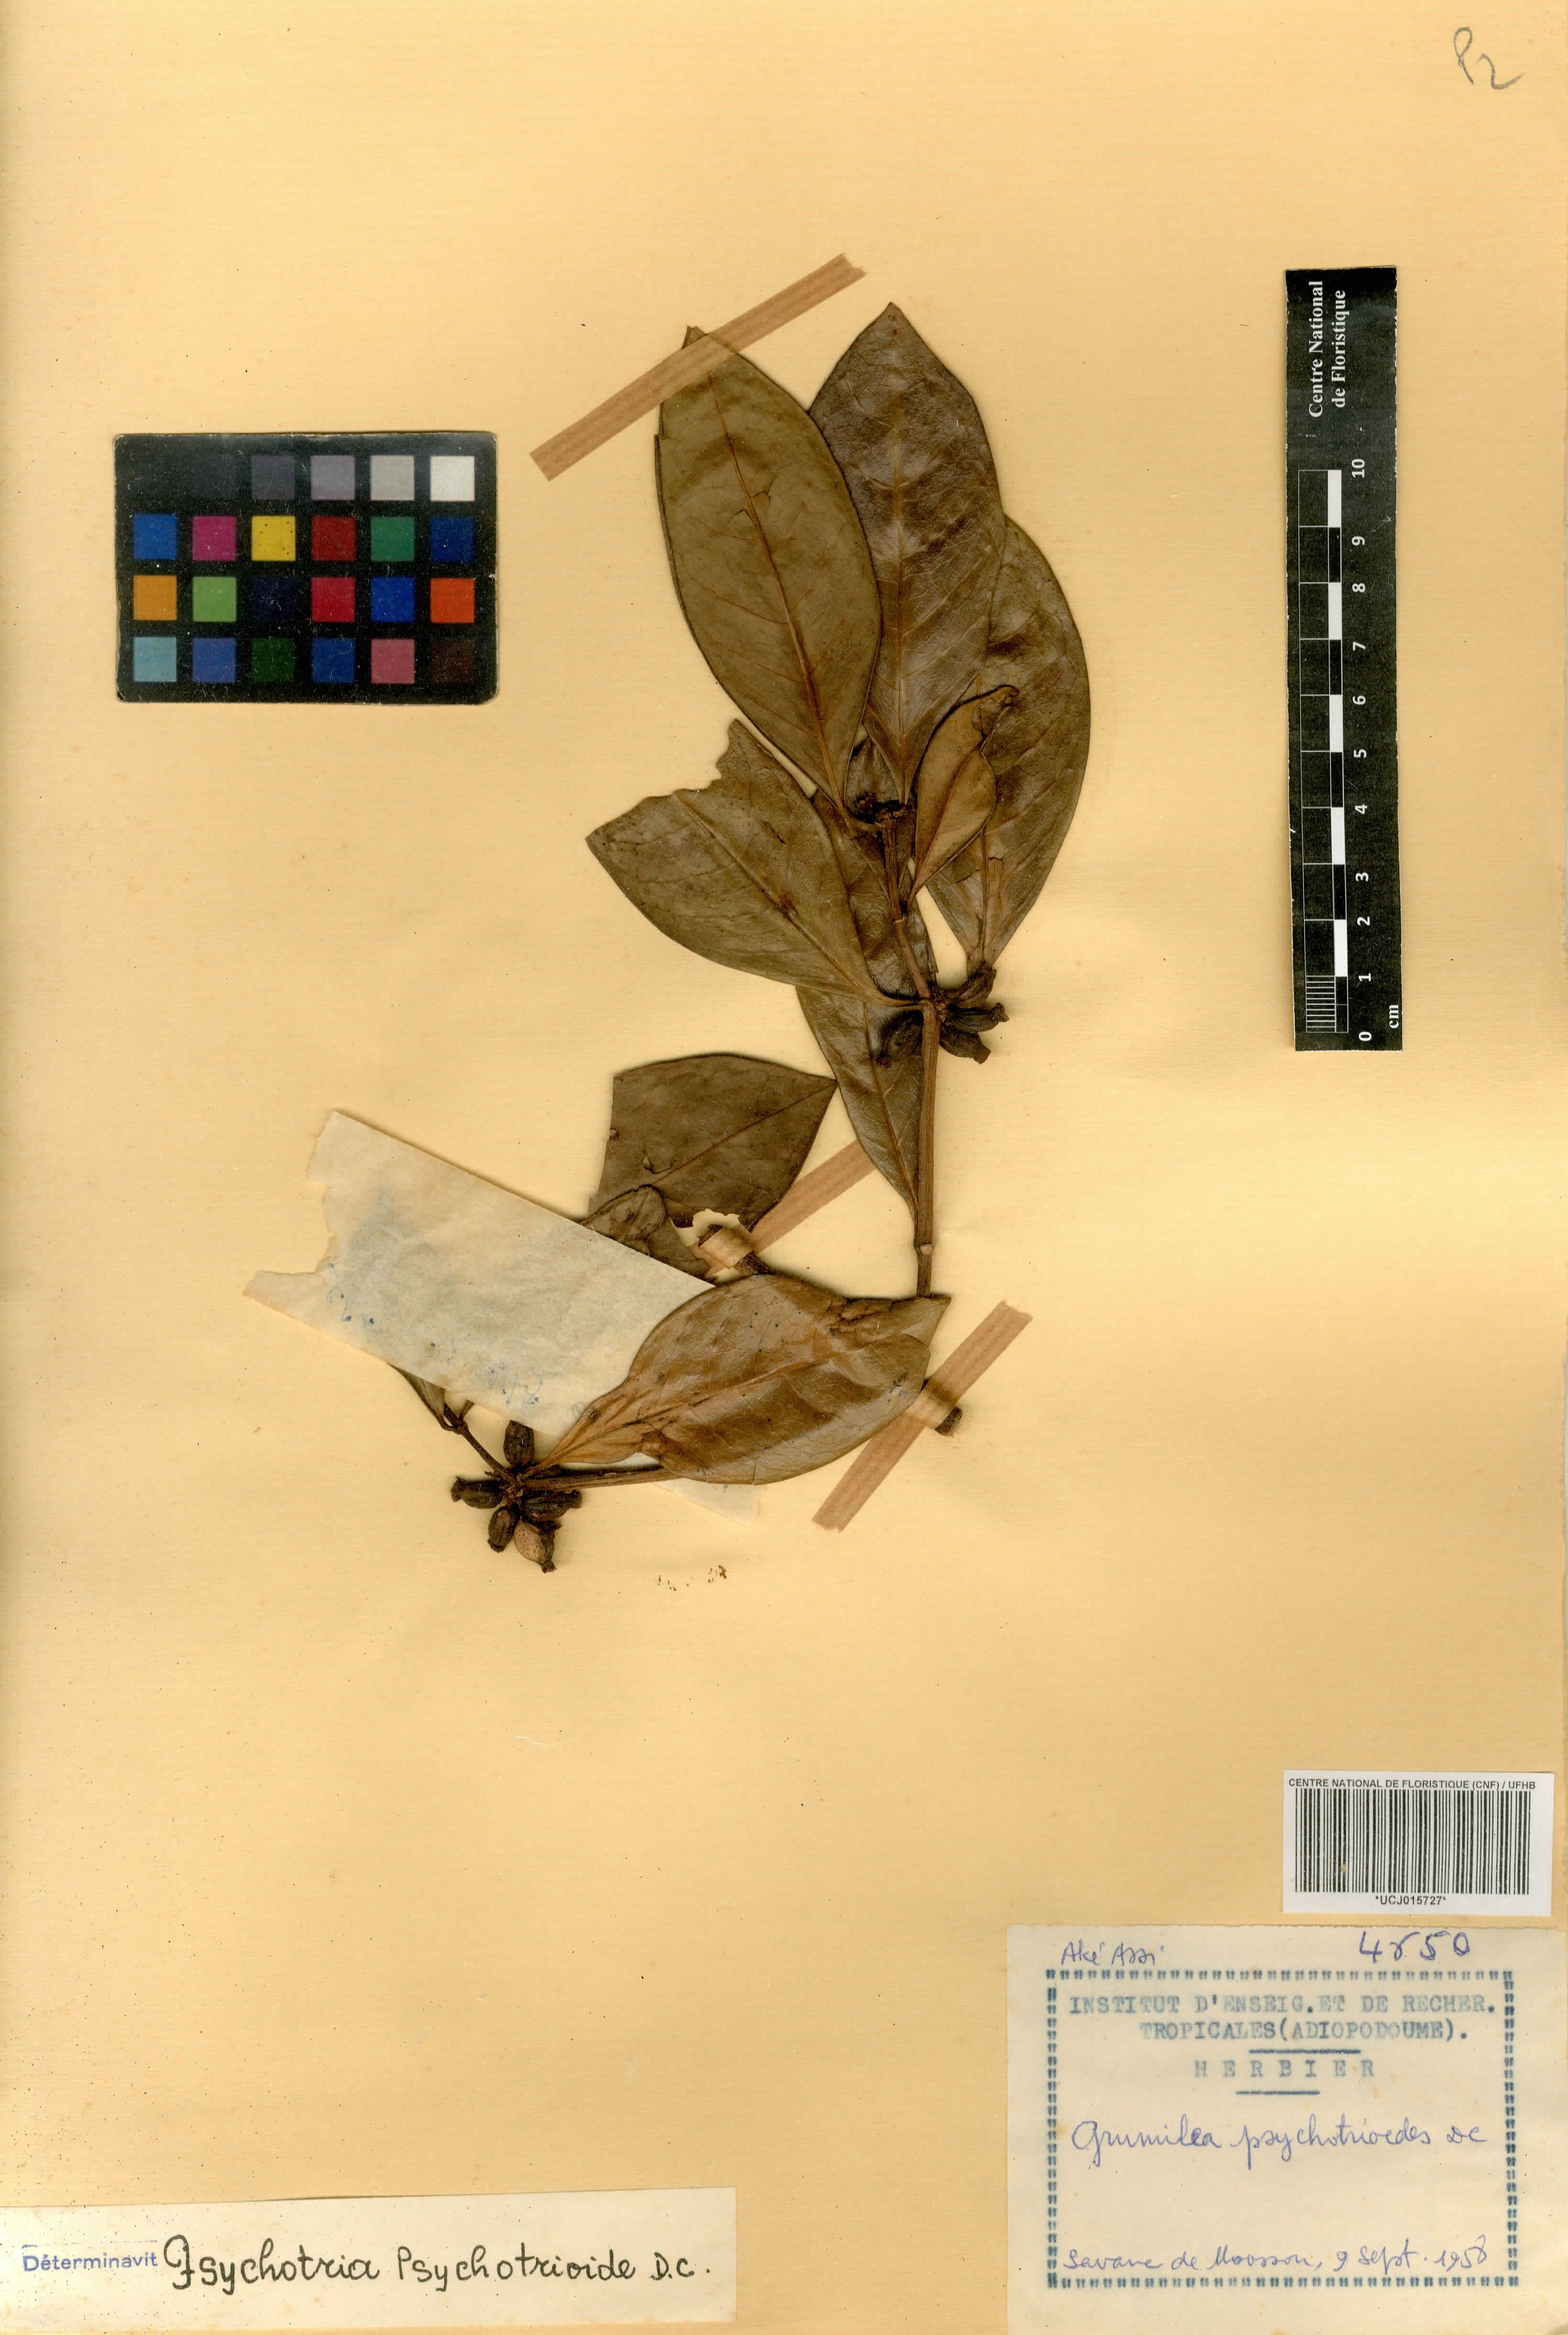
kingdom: Plantae
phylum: Tracheophyta
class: Magnoliopsida
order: Gentianales
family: Rubiaceae
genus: Psychotria
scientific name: Psychotria psychotrioides
